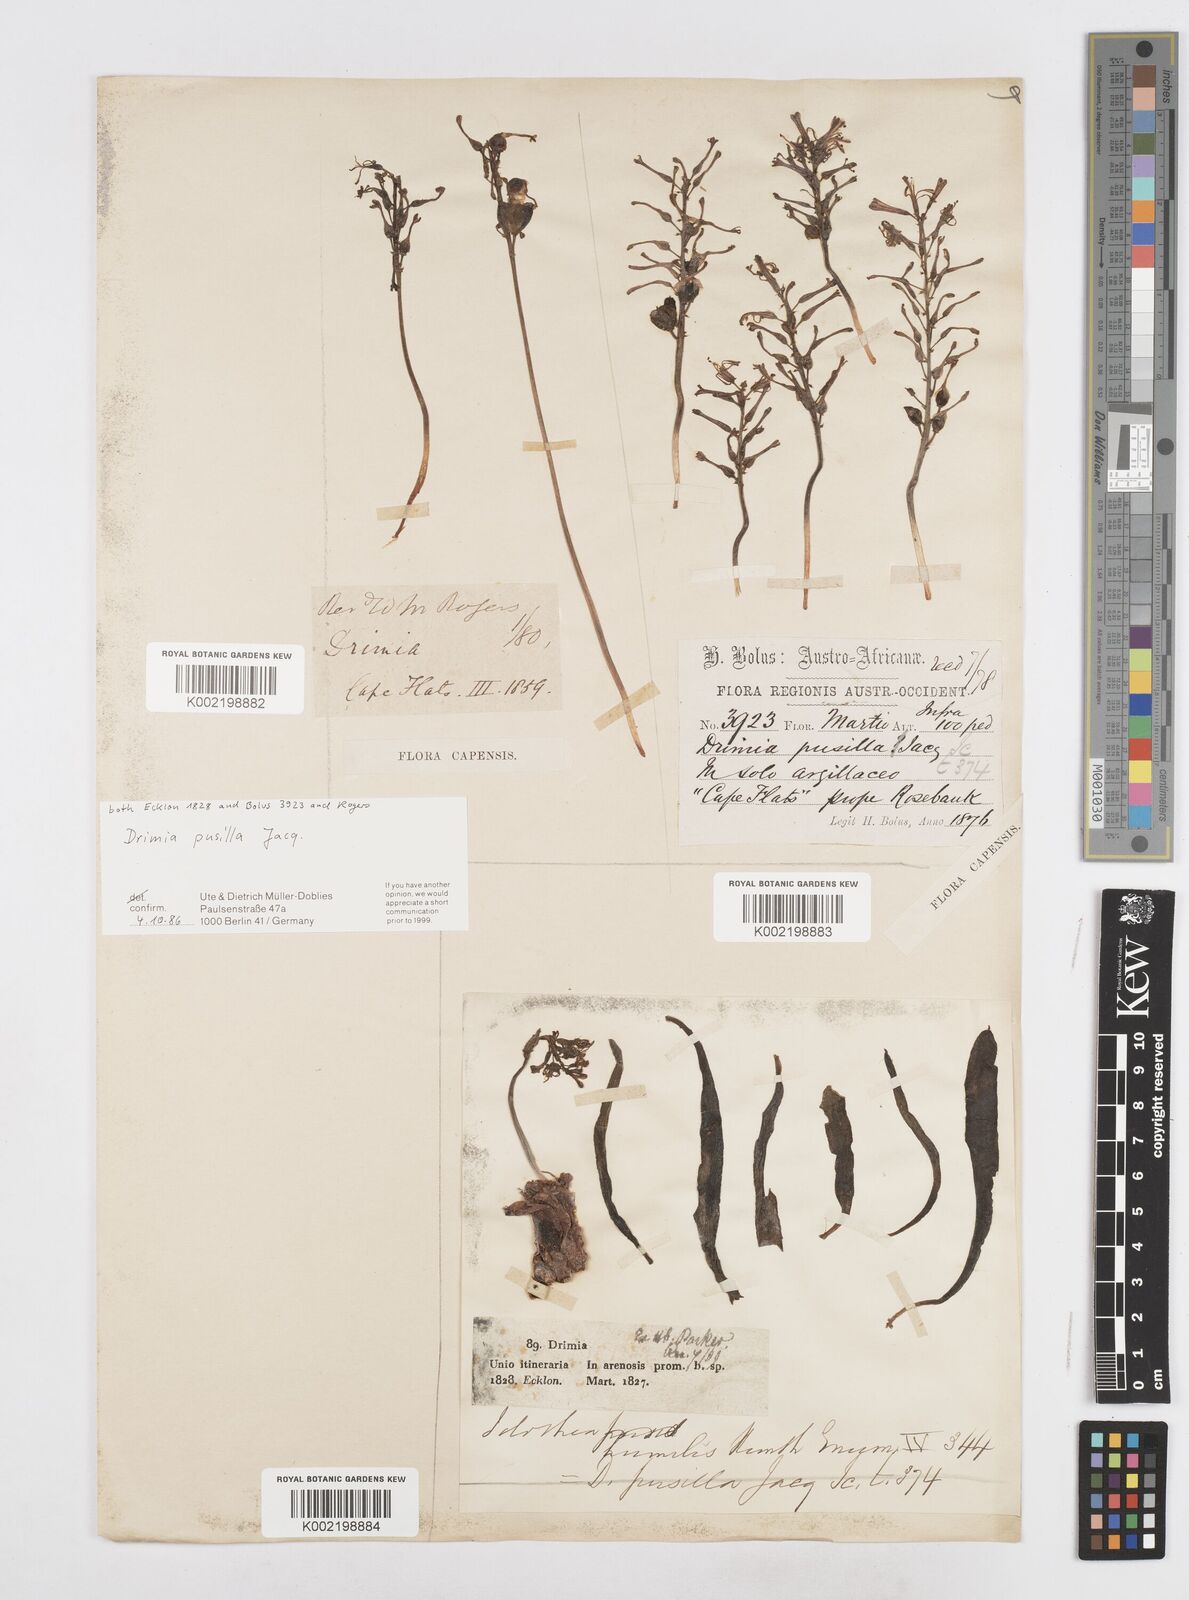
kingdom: Plantae
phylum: Tracheophyta
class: Liliopsida
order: Asparagales
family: Asparagaceae
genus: Drimia
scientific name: Drimia elata
